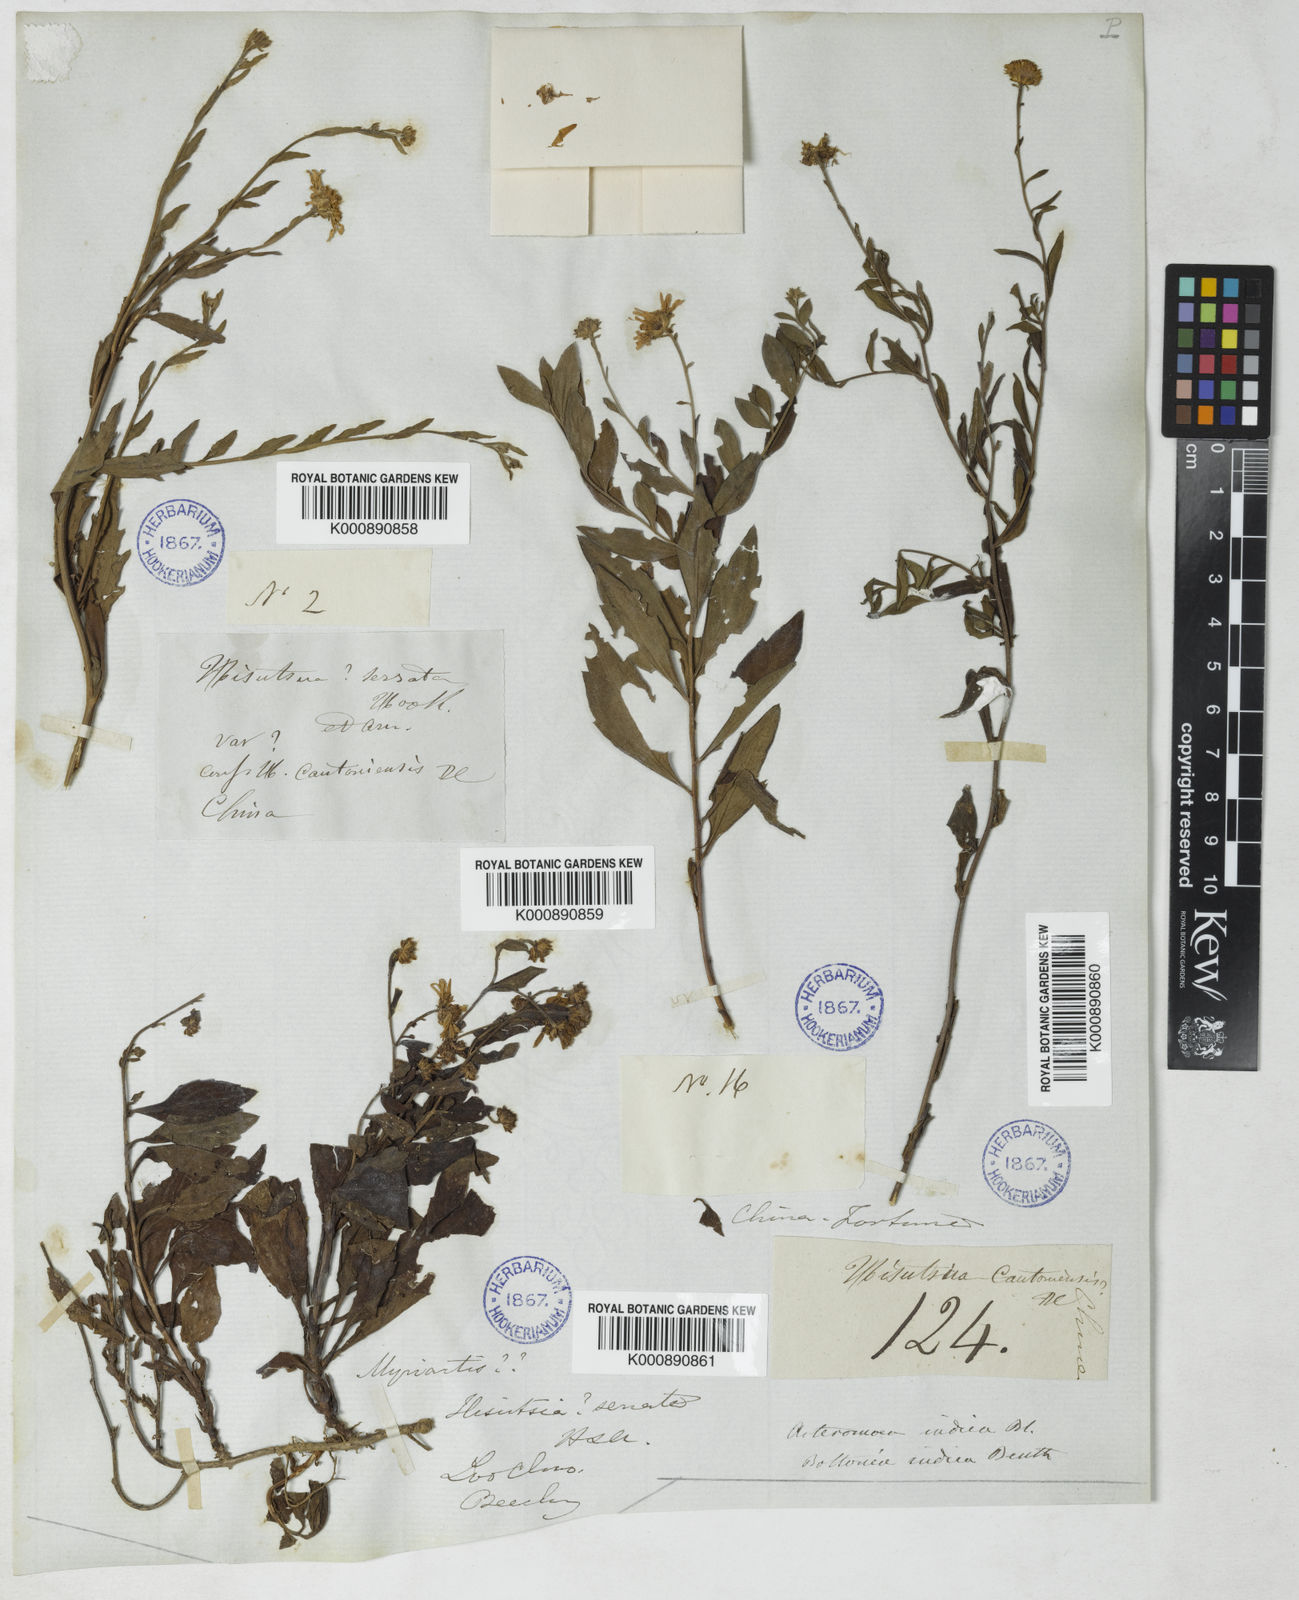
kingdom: Plantae
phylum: Tracheophyta
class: Magnoliopsida
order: Asterales
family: Asteraceae
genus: Kalimeris
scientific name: Kalimeris indica
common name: Indian aster
